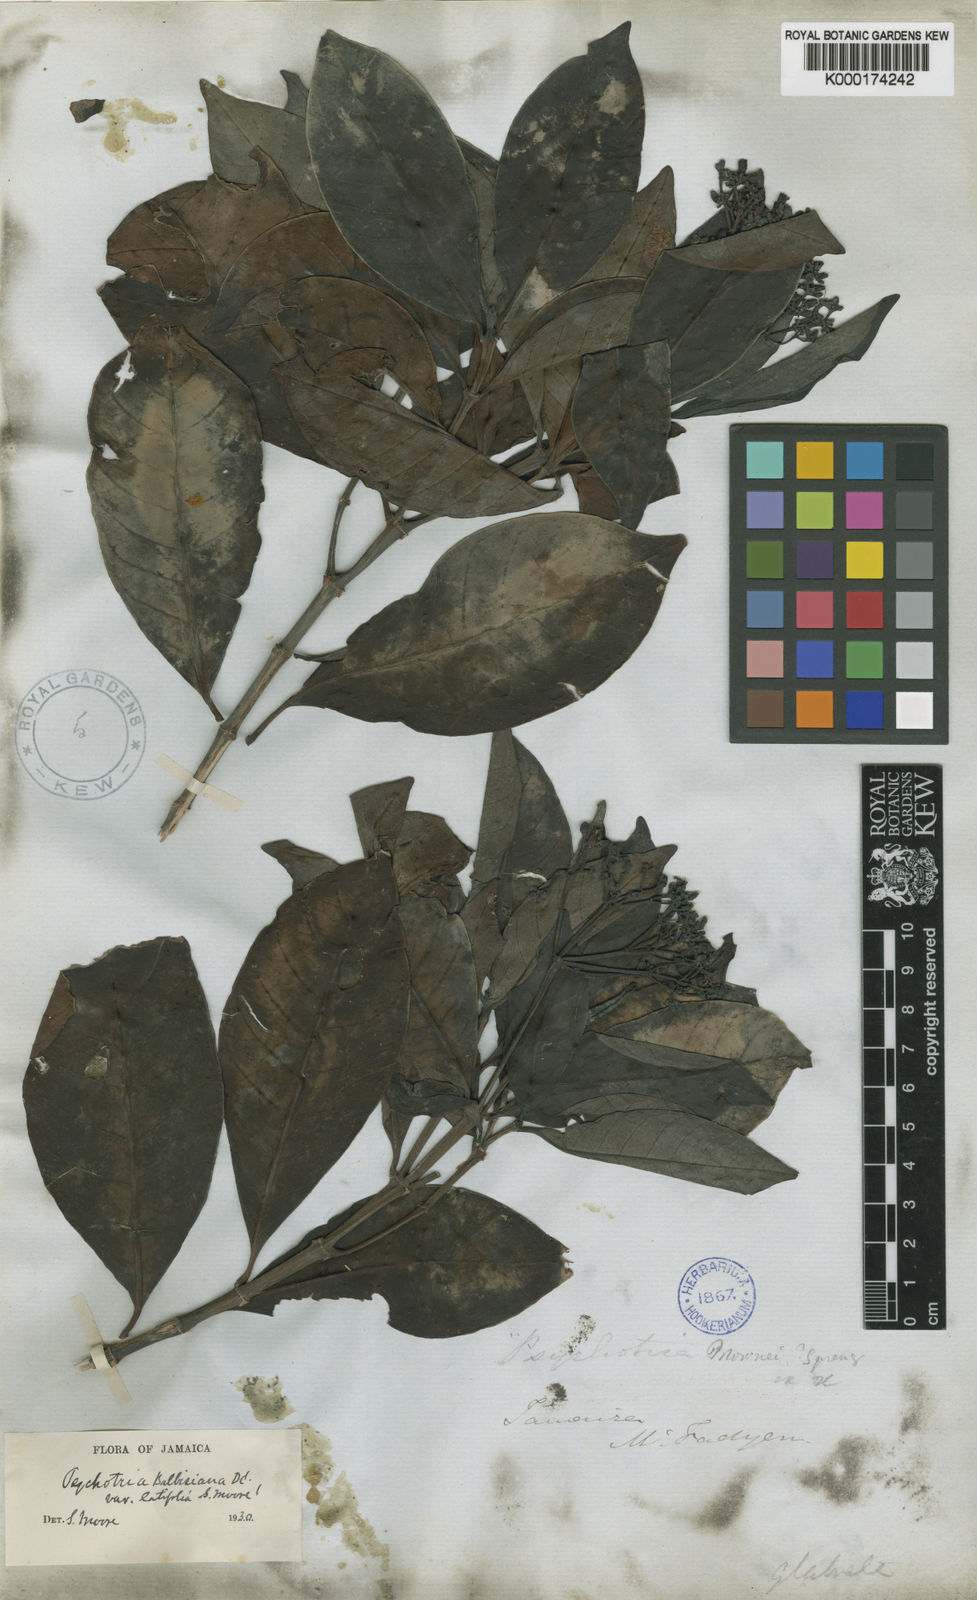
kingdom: Plantae
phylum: Tracheophyta
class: Magnoliopsida
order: Gentianales
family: Rubiaceae
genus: Psychotria
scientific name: Psychotria balbisiana
